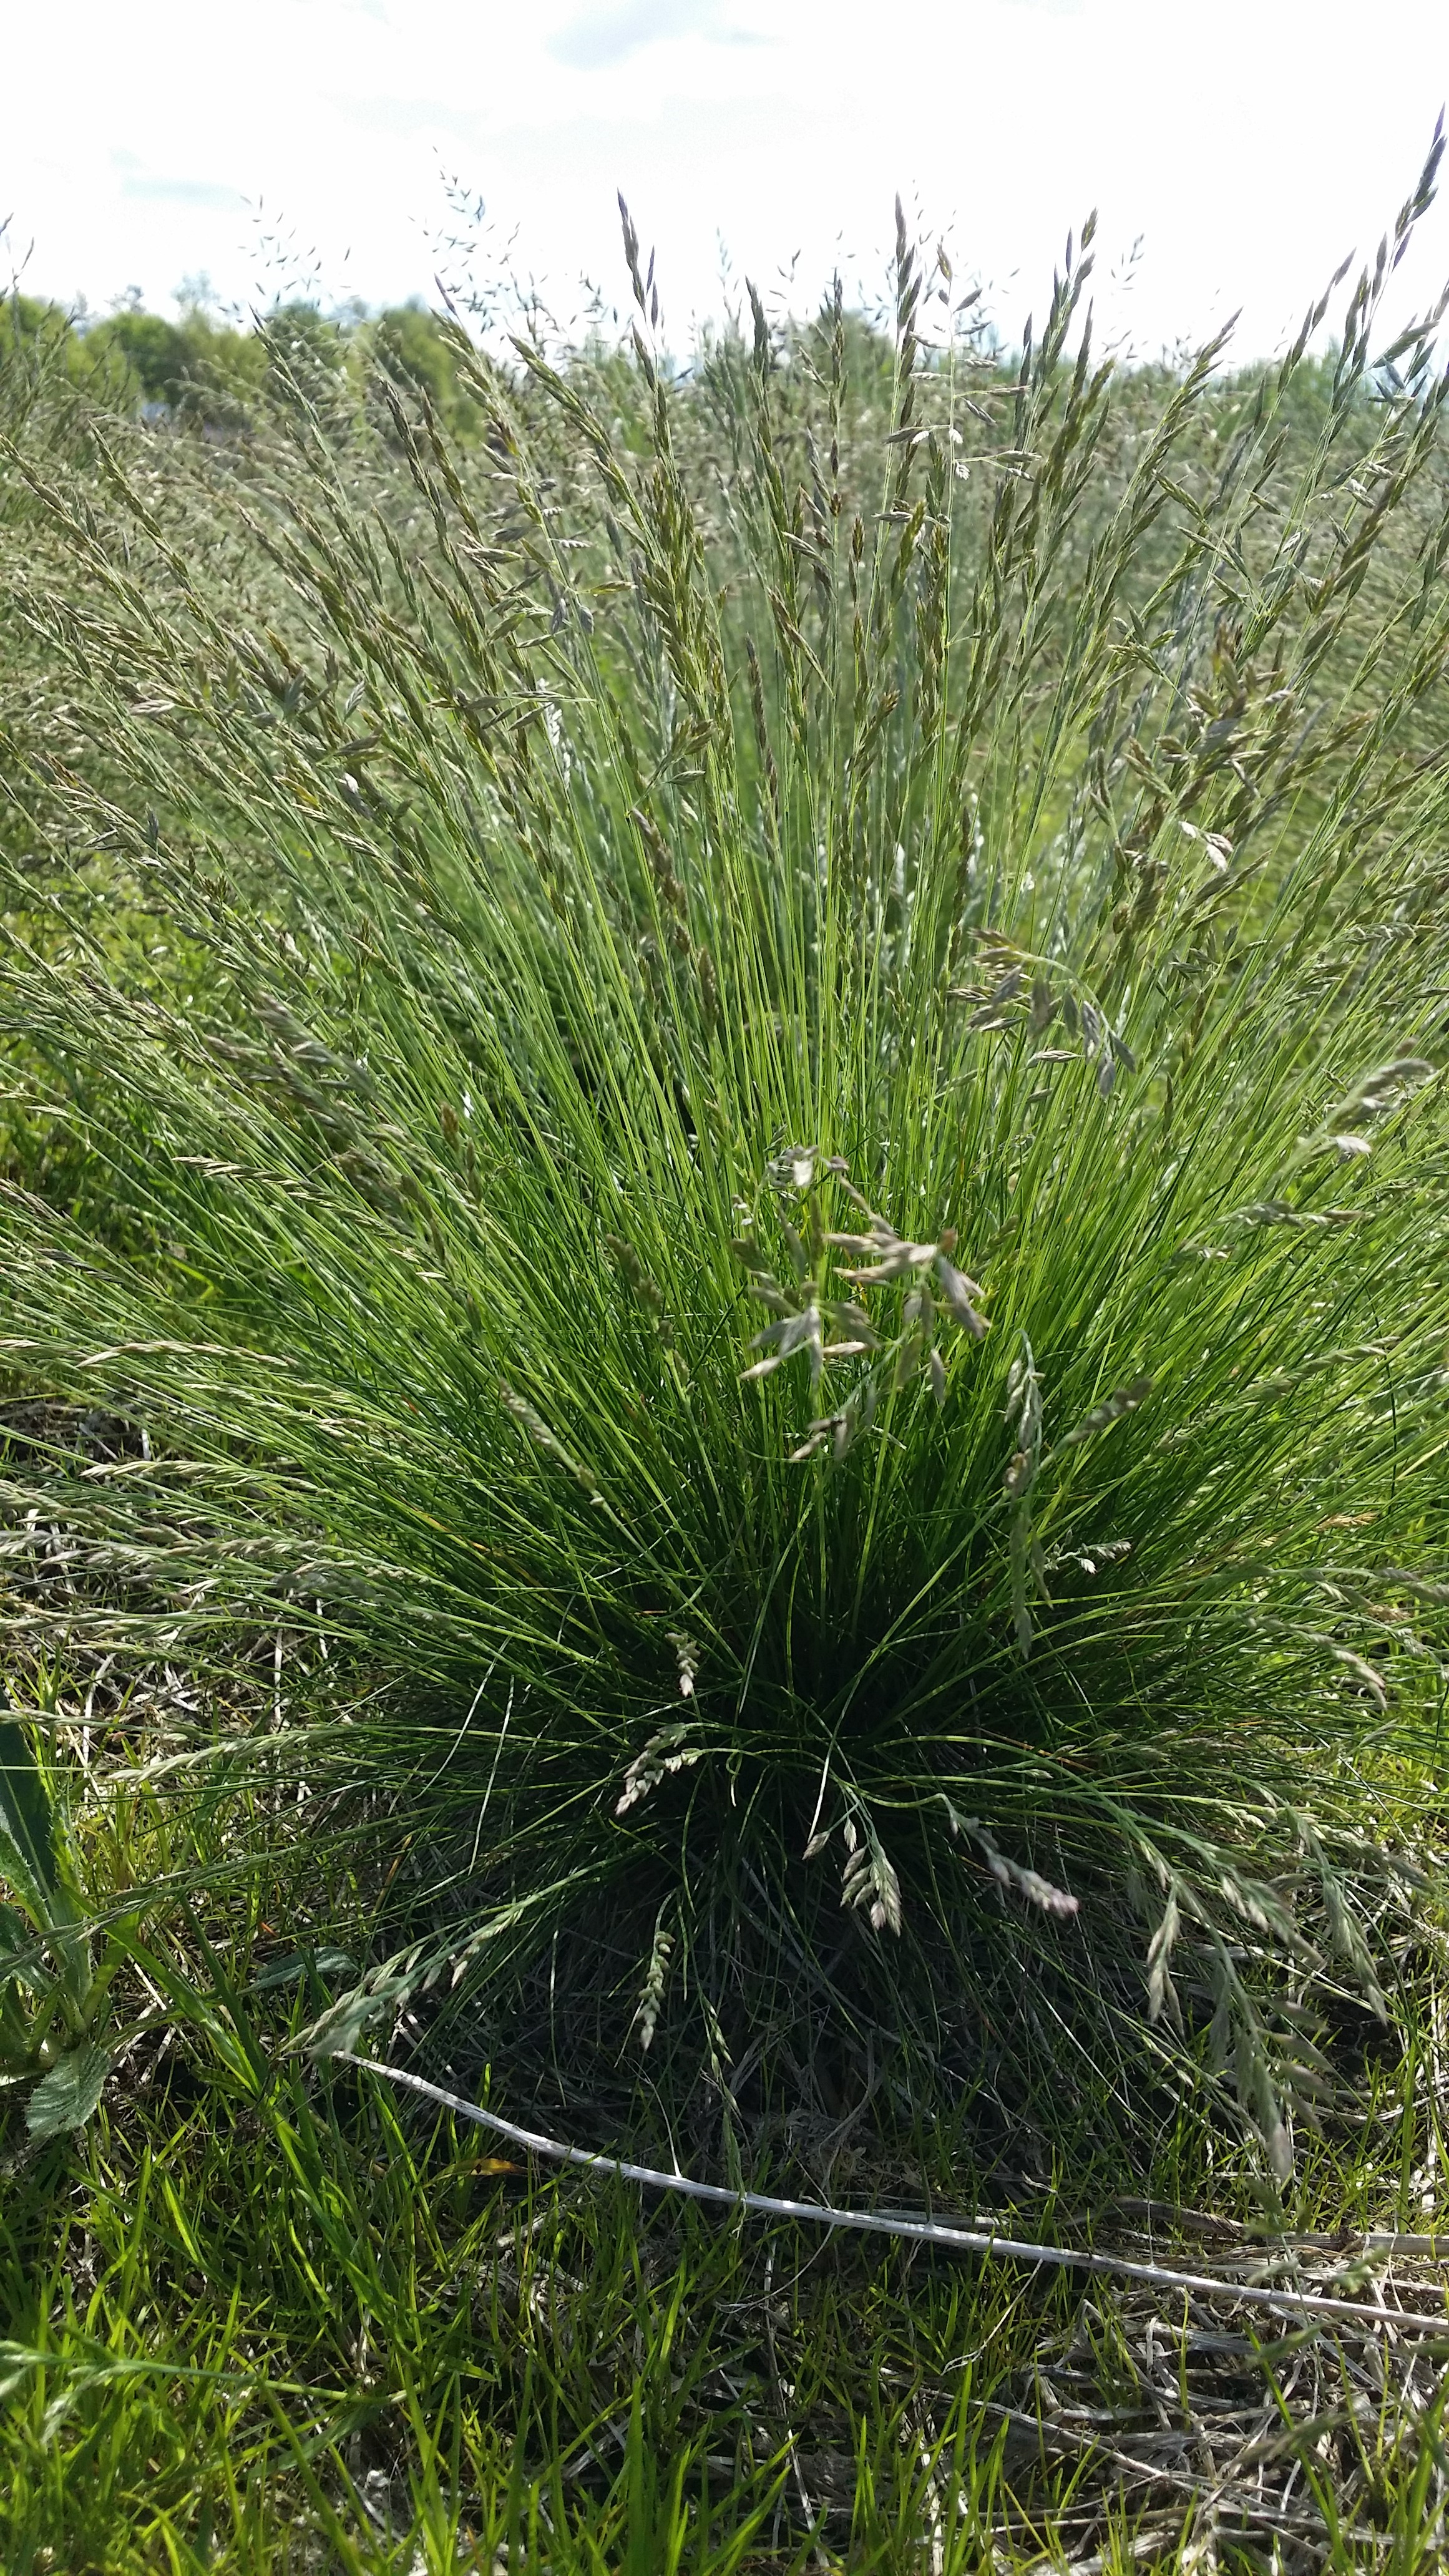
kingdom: Plantae
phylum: Tracheophyta
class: Liliopsida
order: Poales
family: Poaceae
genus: Festuca
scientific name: Festuca ovina
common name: Sheep fescue
